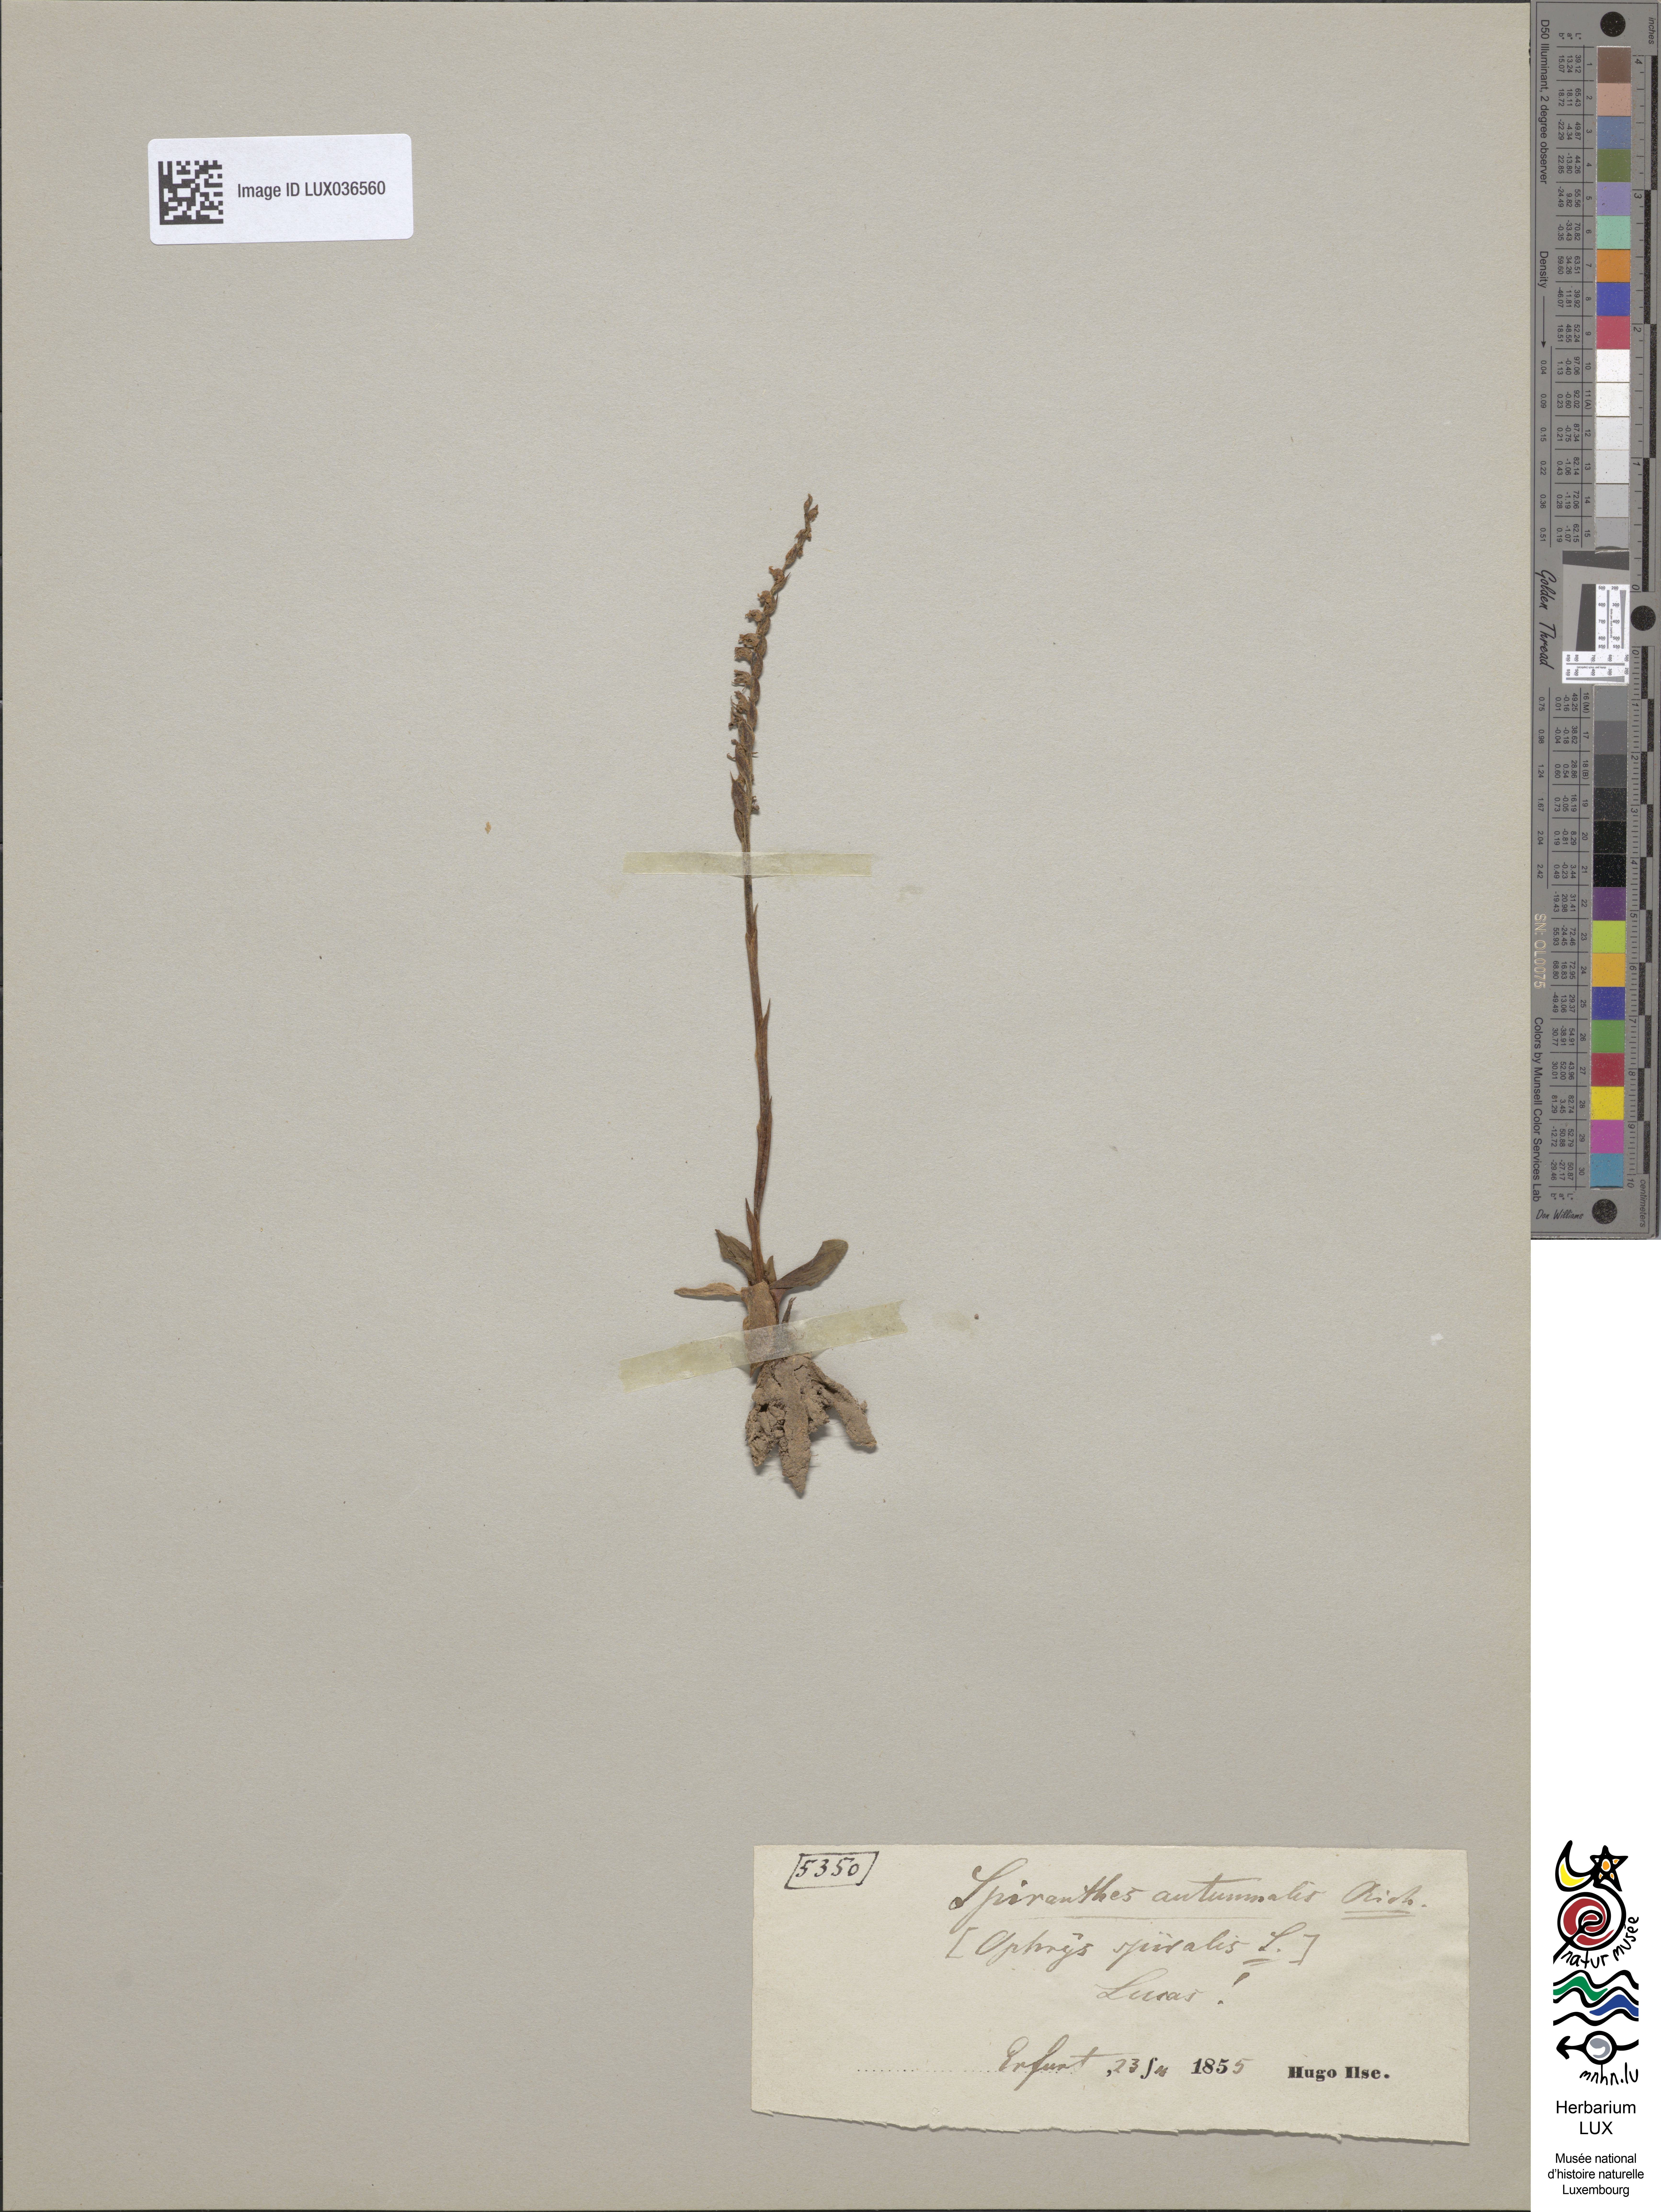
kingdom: Plantae
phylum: Tracheophyta
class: Liliopsida
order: Asparagales
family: Orchidaceae
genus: Spiranthes
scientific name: Spiranthes spiralis
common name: Autumn lady's-tresses
